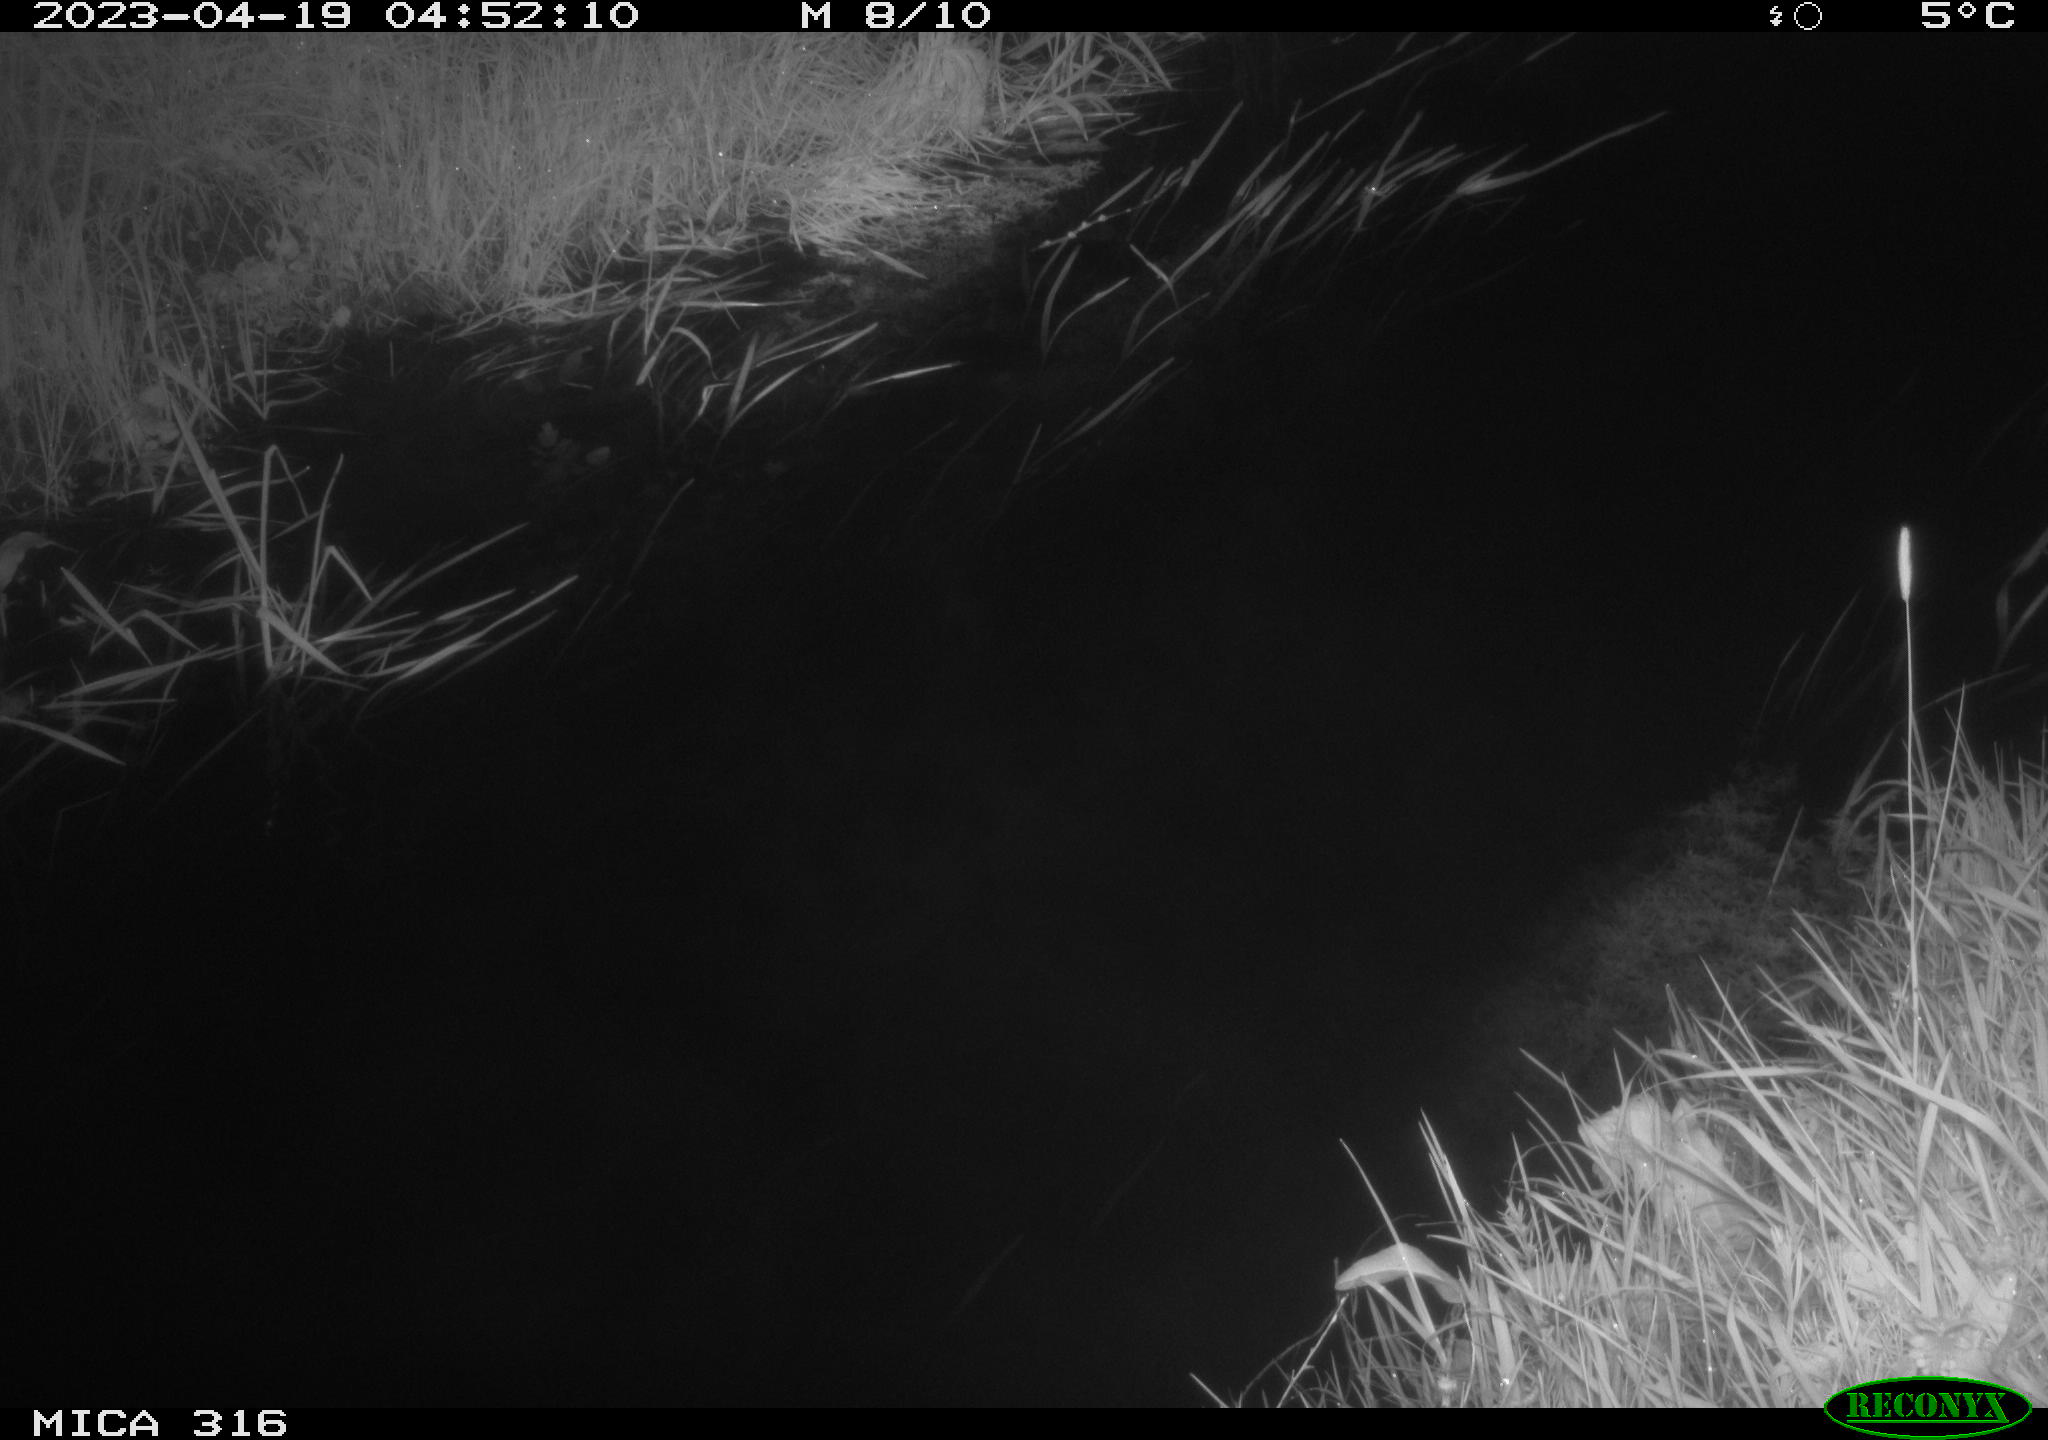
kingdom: Animalia
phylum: Chordata
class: Aves
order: Anseriformes
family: Anatidae
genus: Anas
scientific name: Anas
